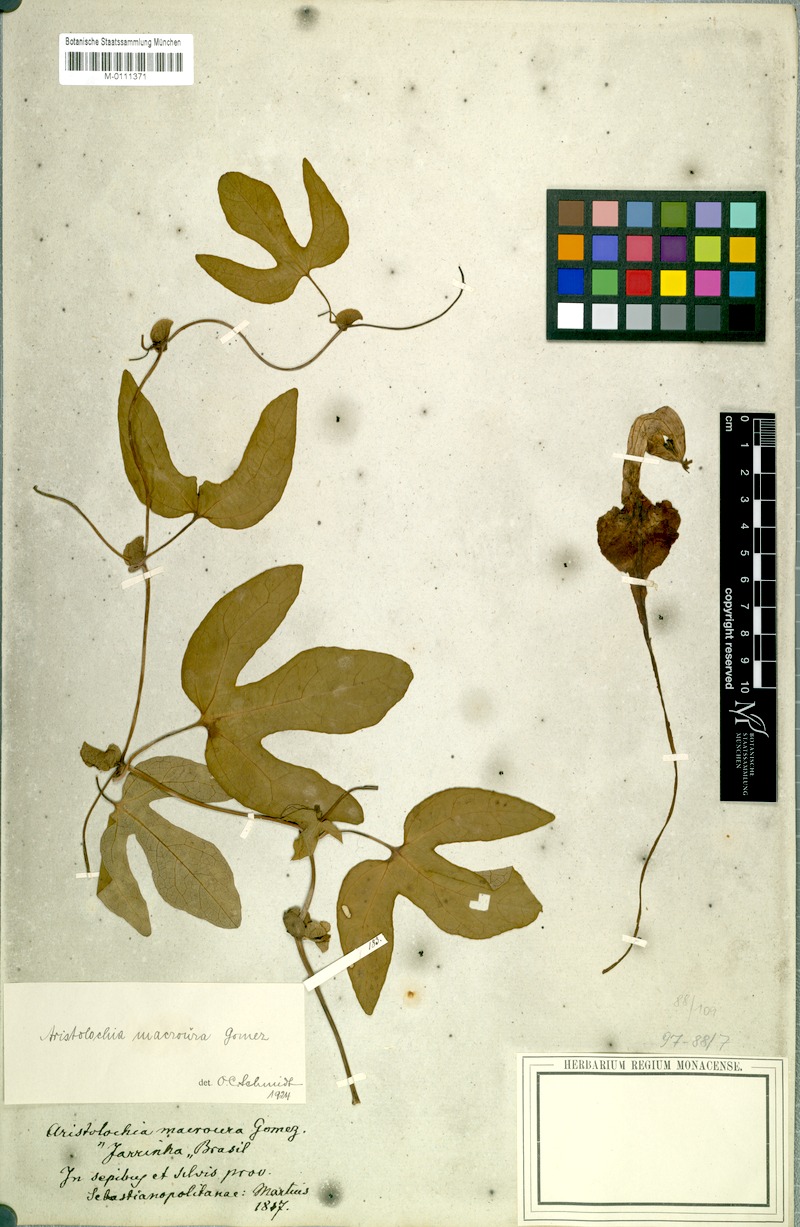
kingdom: Plantae
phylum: Tracheophyta
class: Magnoliopsida
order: Piperales
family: Aristolochiaceae
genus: Aristolochia
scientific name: Aristolochia macroura
